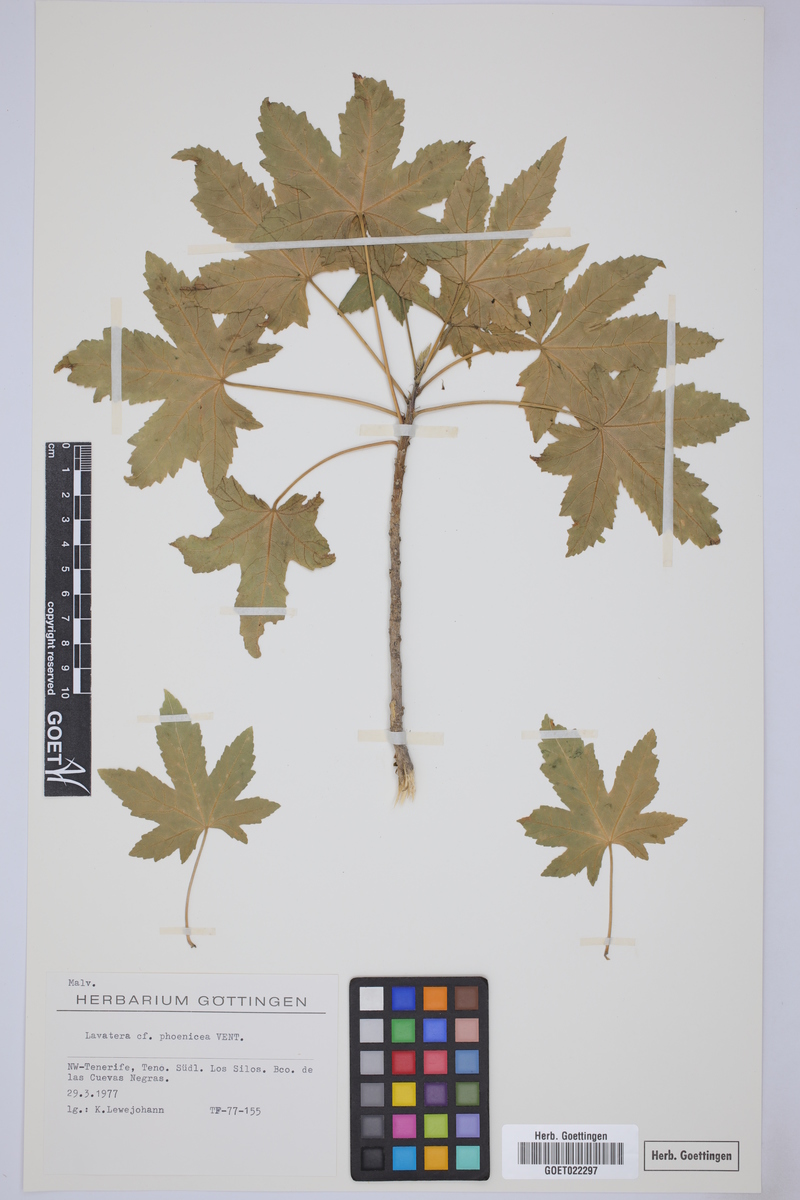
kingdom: Plantae
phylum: Tracheophyta
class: Magnoliopsida
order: Malvales
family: Malvaceae
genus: Malva
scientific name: Malva acerifolia
